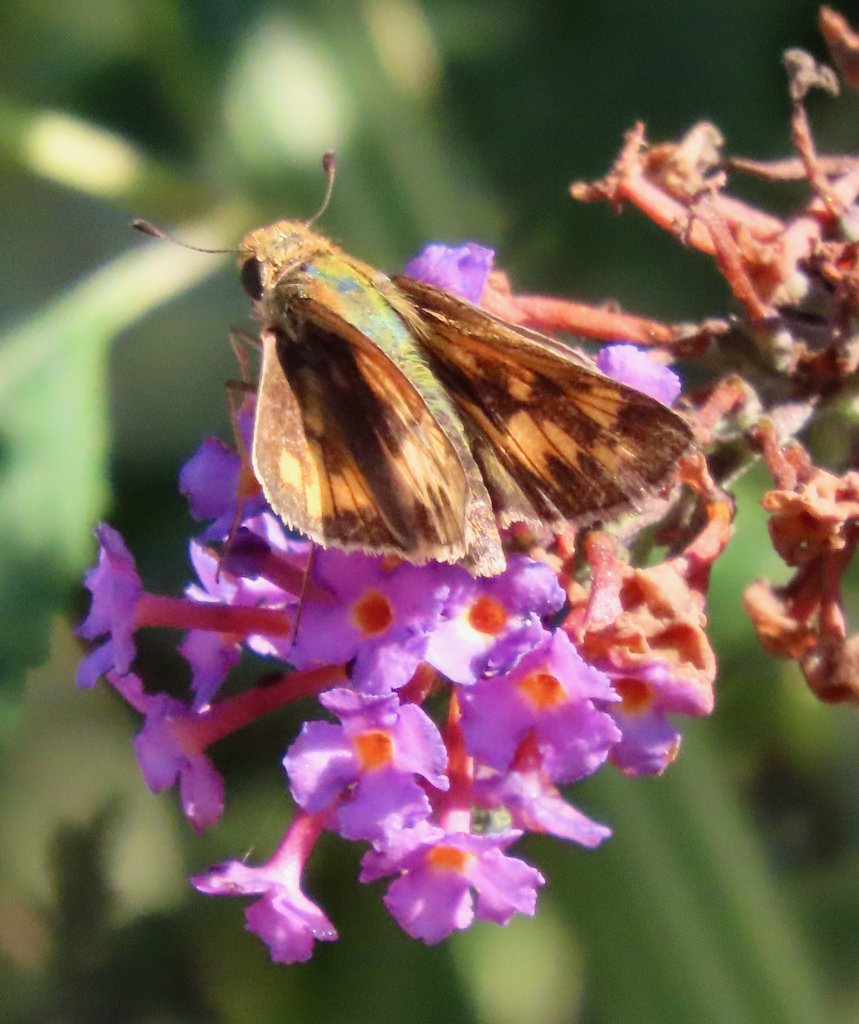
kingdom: Animalia
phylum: Arthropoda
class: Insecta
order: Lepidoptera
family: Hesperiidae
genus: Hylephila
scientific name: Hylephila phyleus
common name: Fiery Skipper
